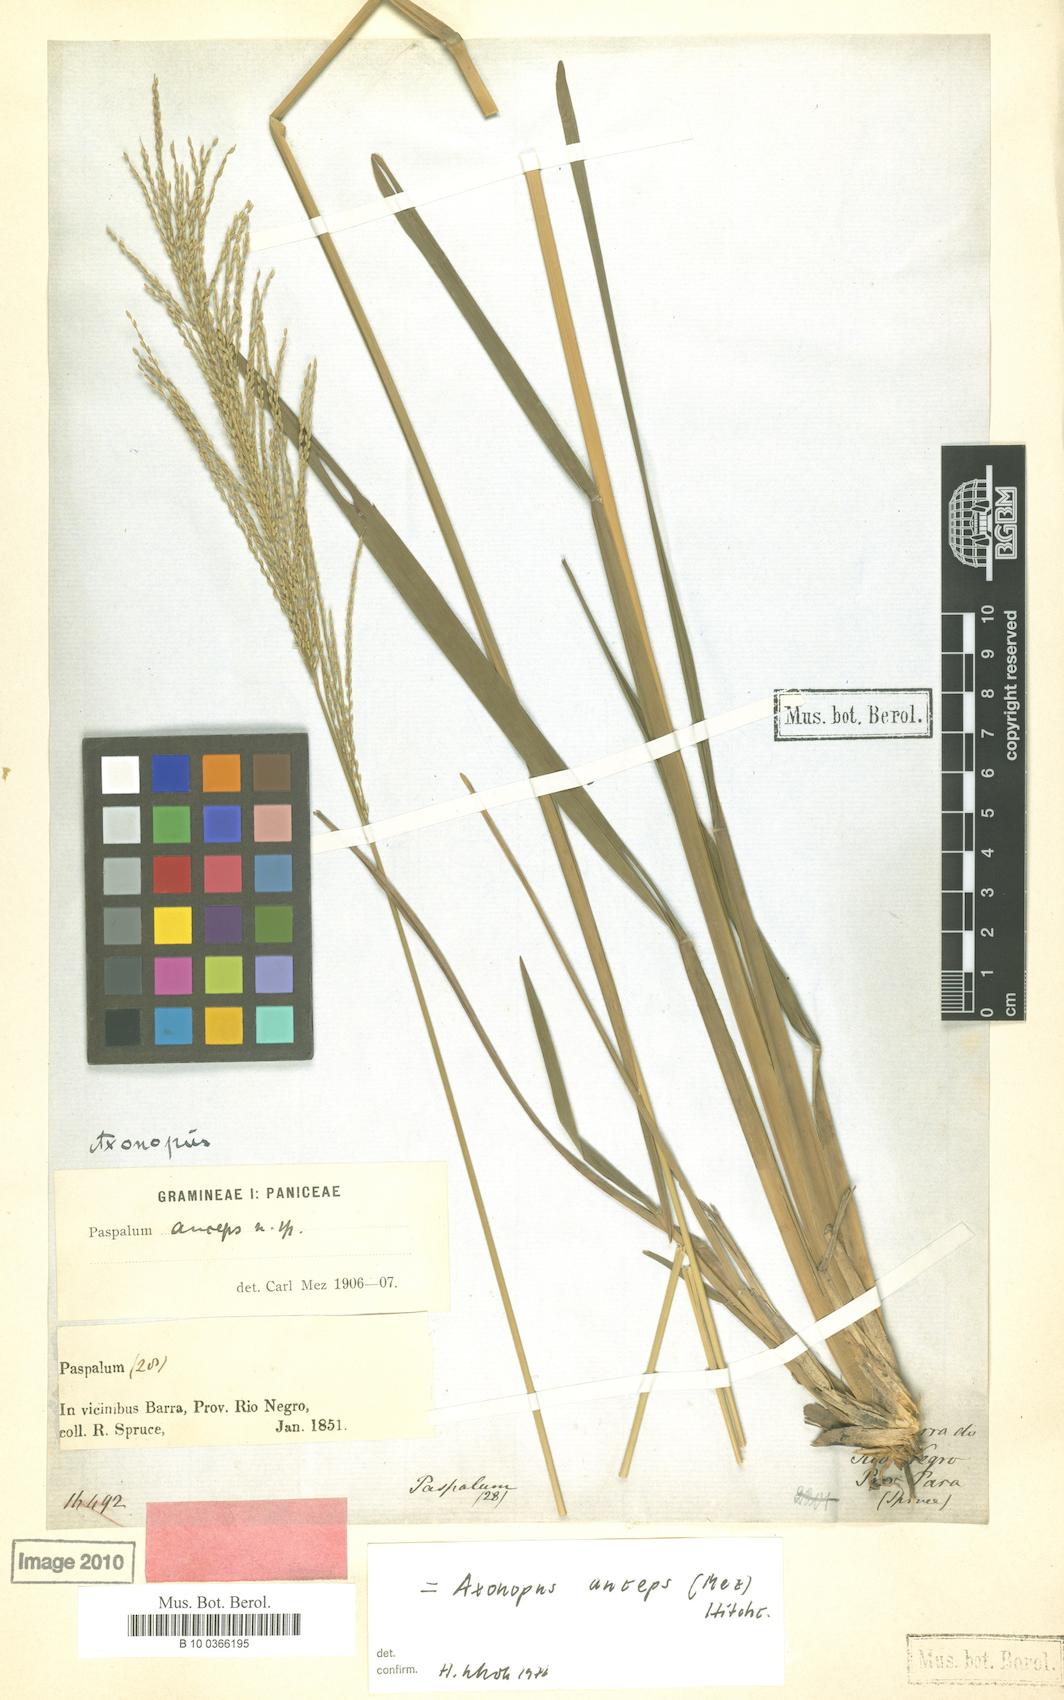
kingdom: Plantae
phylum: Tracheophyta
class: Liliopsida
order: Poales
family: Poaceae
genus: Axonopus
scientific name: Axonopus anceps
